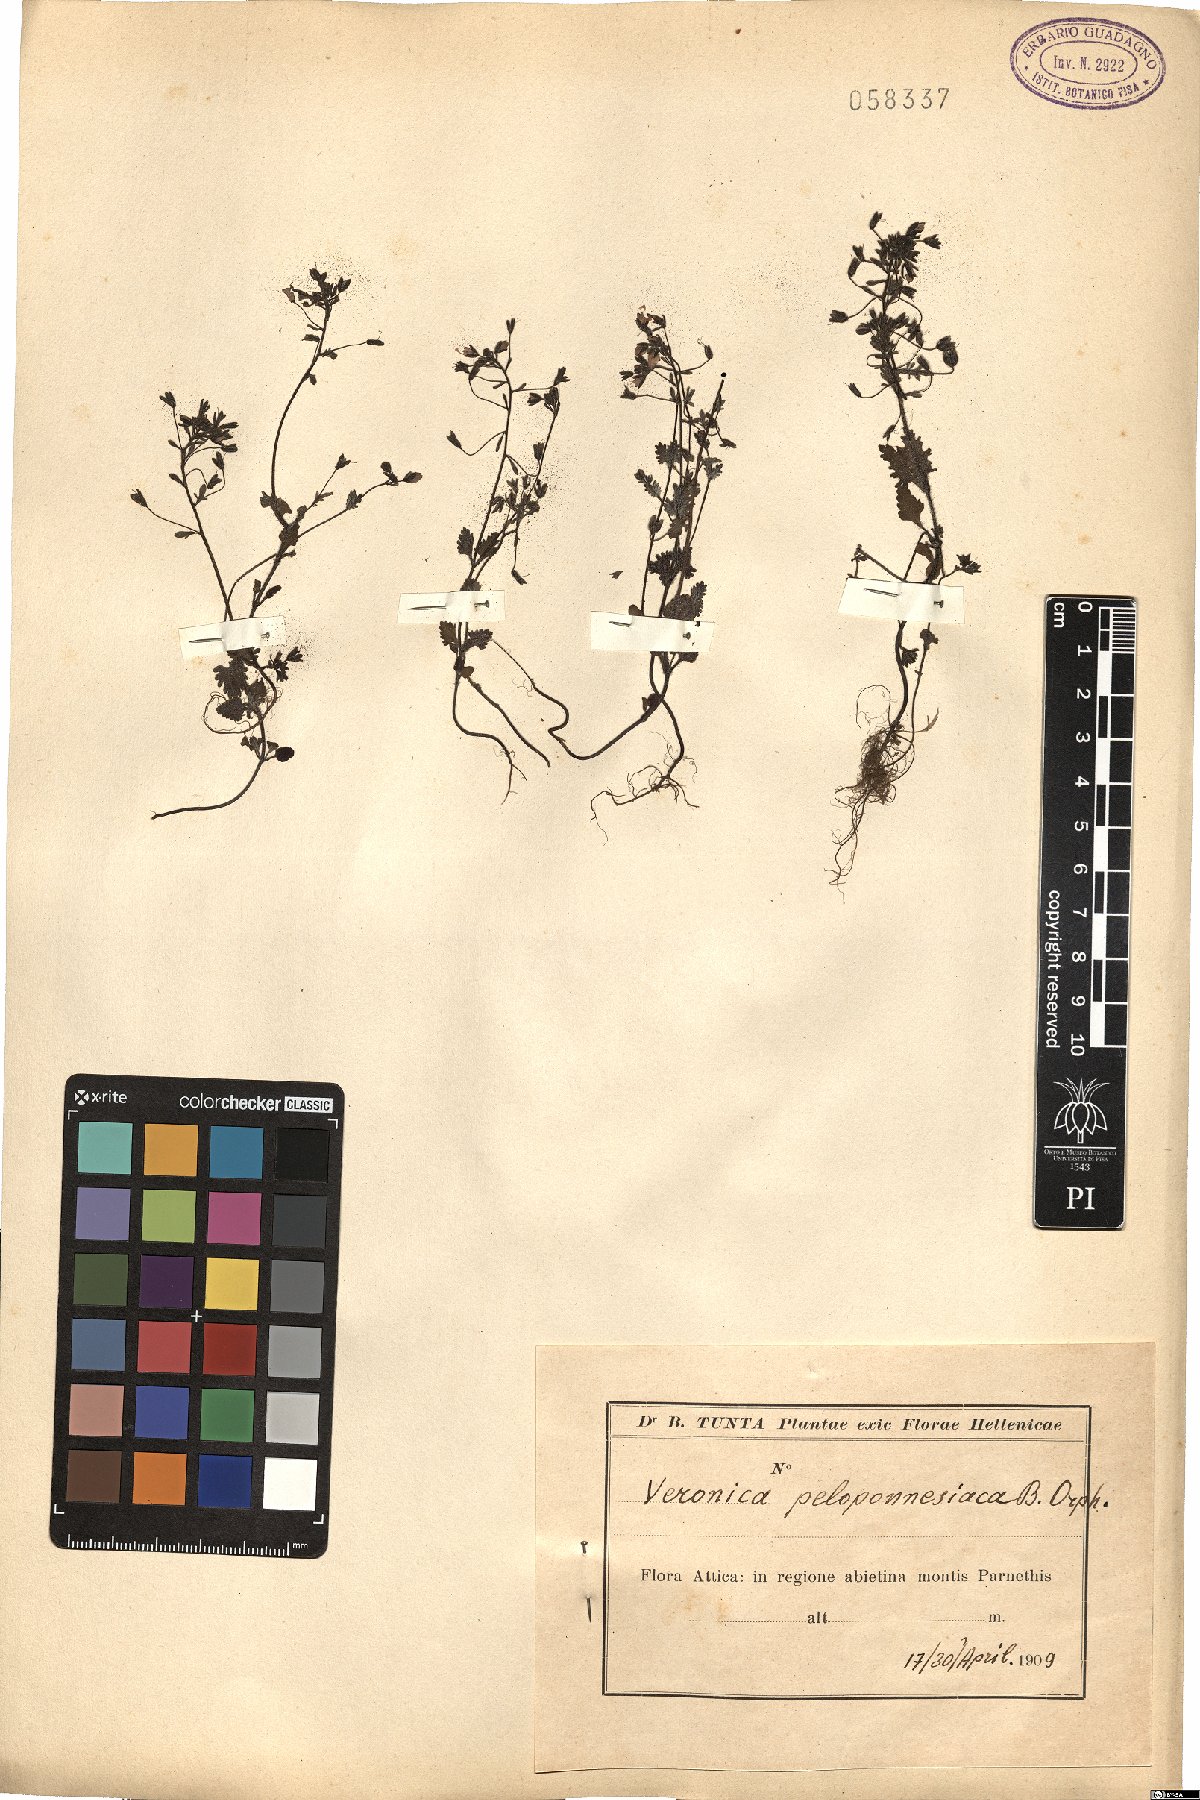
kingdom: Plantae
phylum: Tracheophyta
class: Magnoliopsida
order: Lamiales
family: Plantaginaceae
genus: Veronica
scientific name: Veronica glauca
